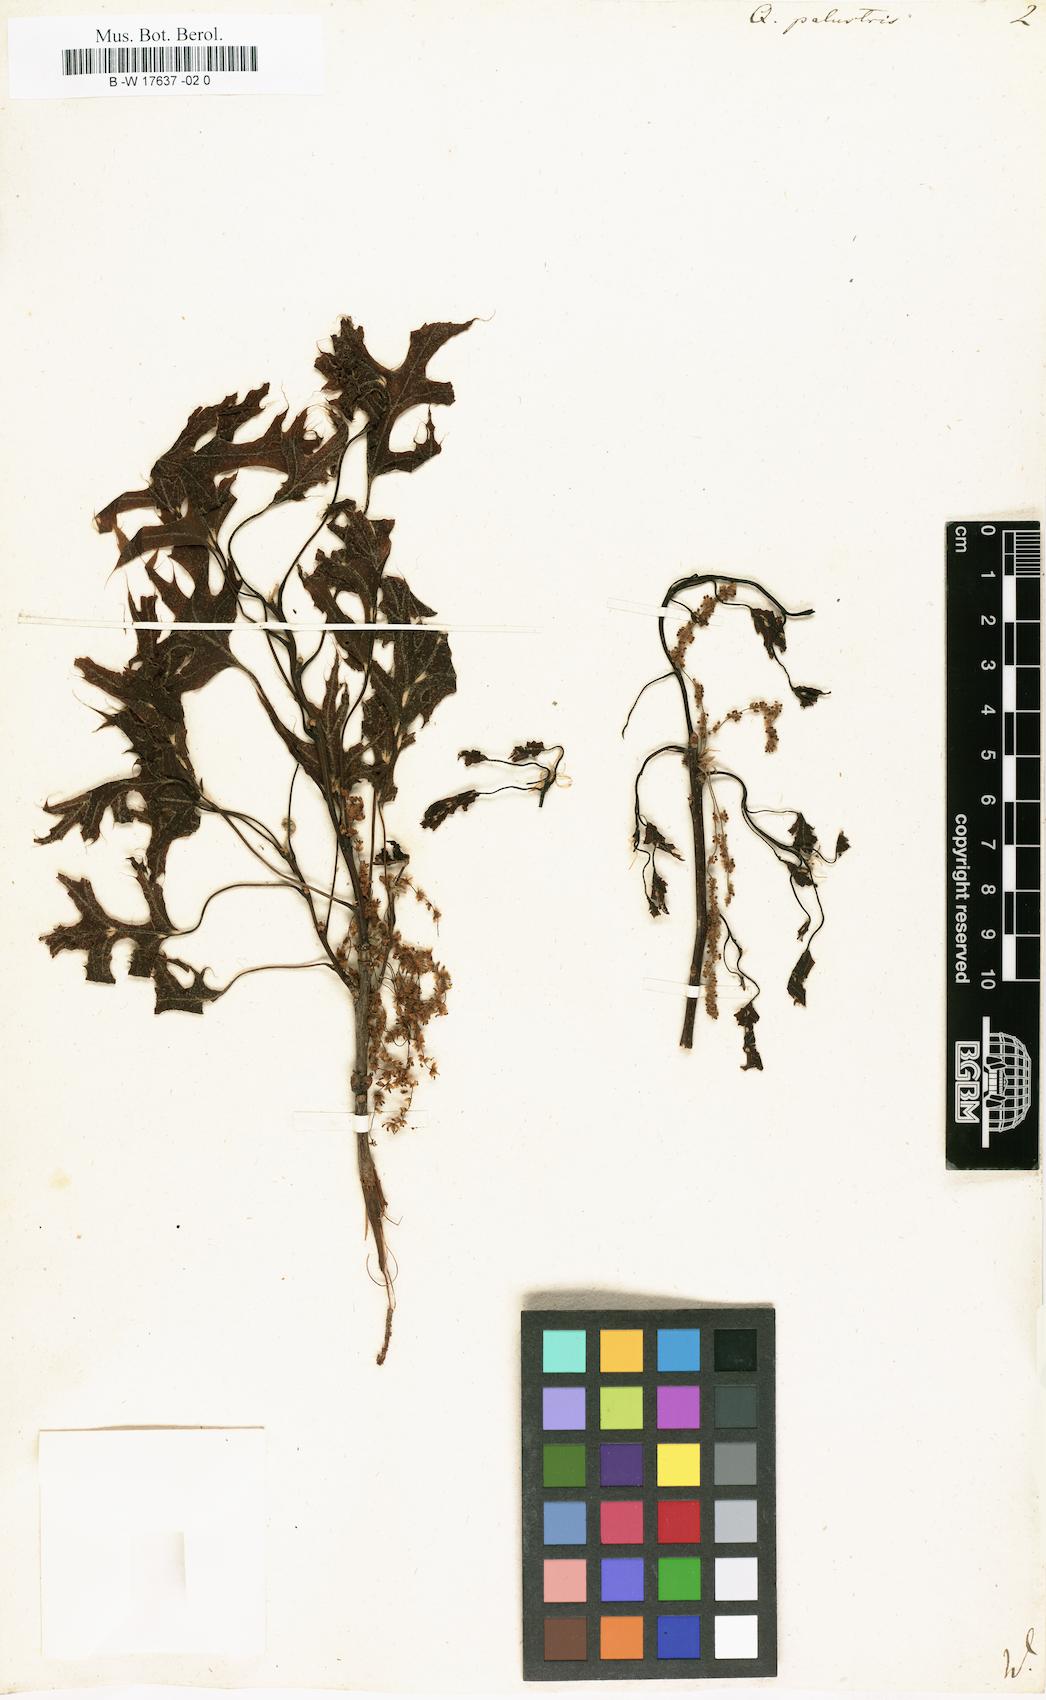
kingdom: Plantae
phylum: Tracheophyta
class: Magnoliopsida
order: Fagales
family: Fagaceae
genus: Quercus
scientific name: Quercus palustris
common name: Pin oak
